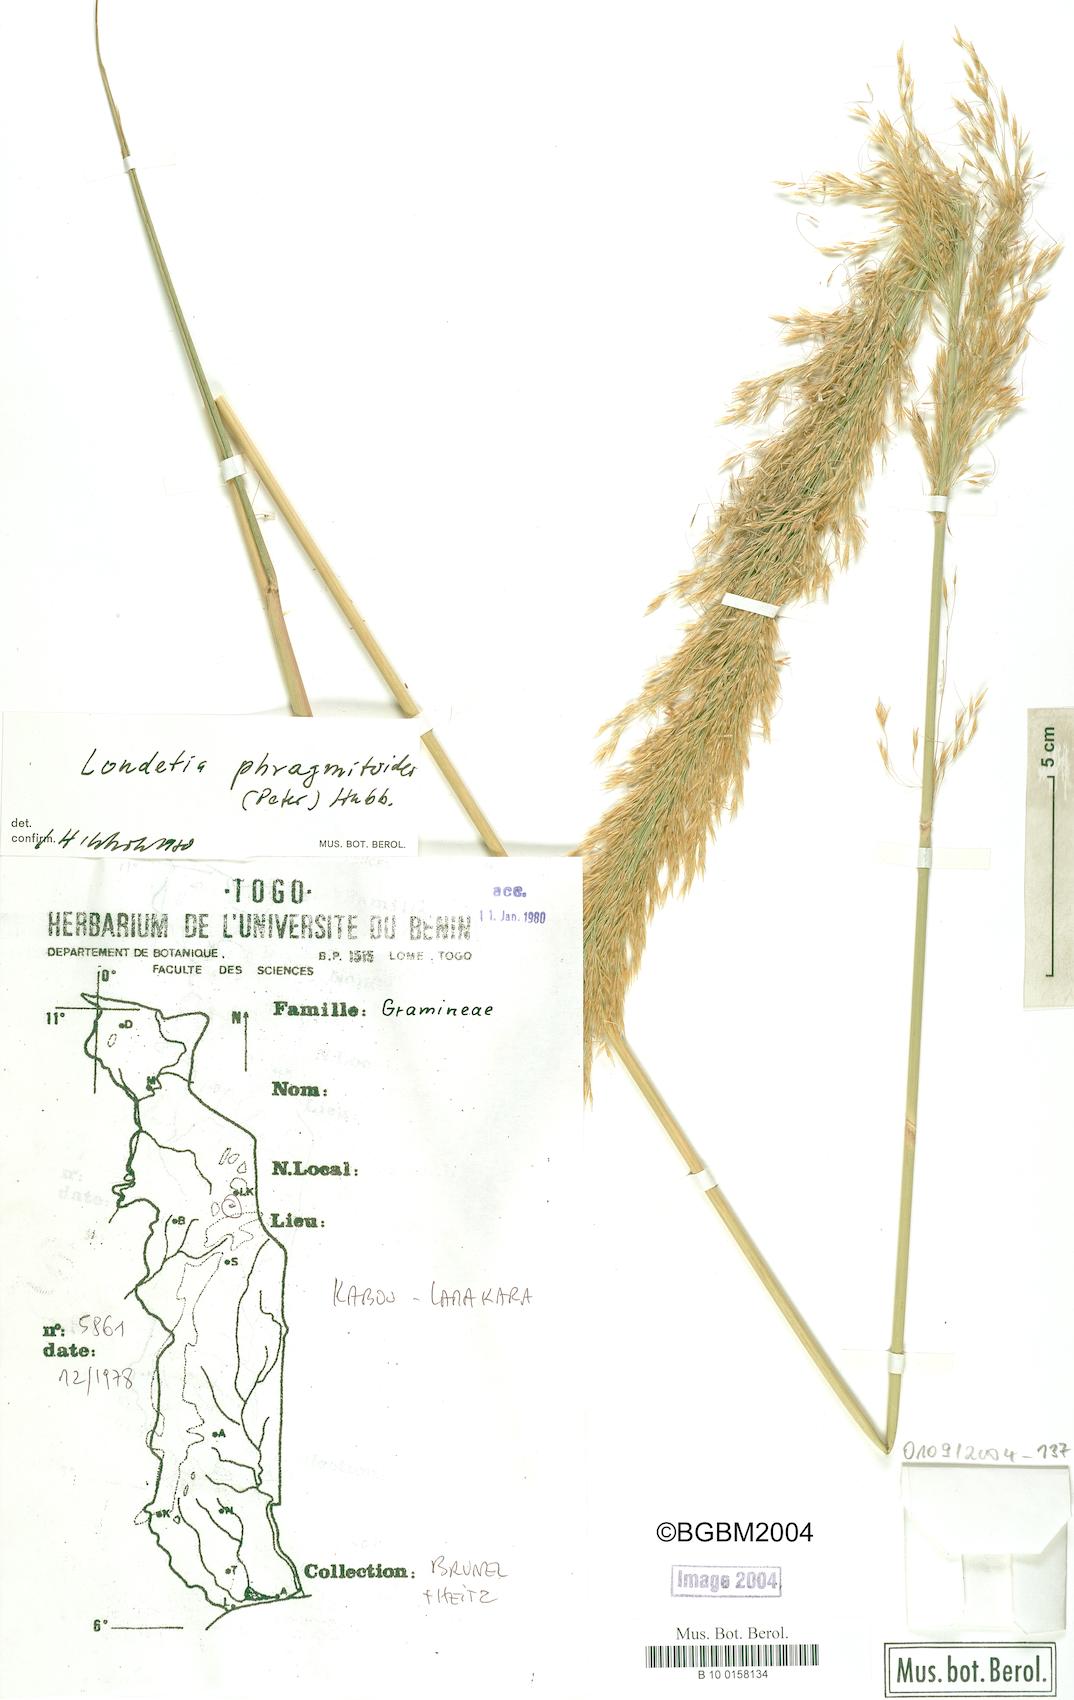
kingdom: Plantae
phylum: Tracheophyta
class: Liliopsida
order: Poales
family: Poaceae
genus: Loudetia
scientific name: Loudetia phragmitoides
